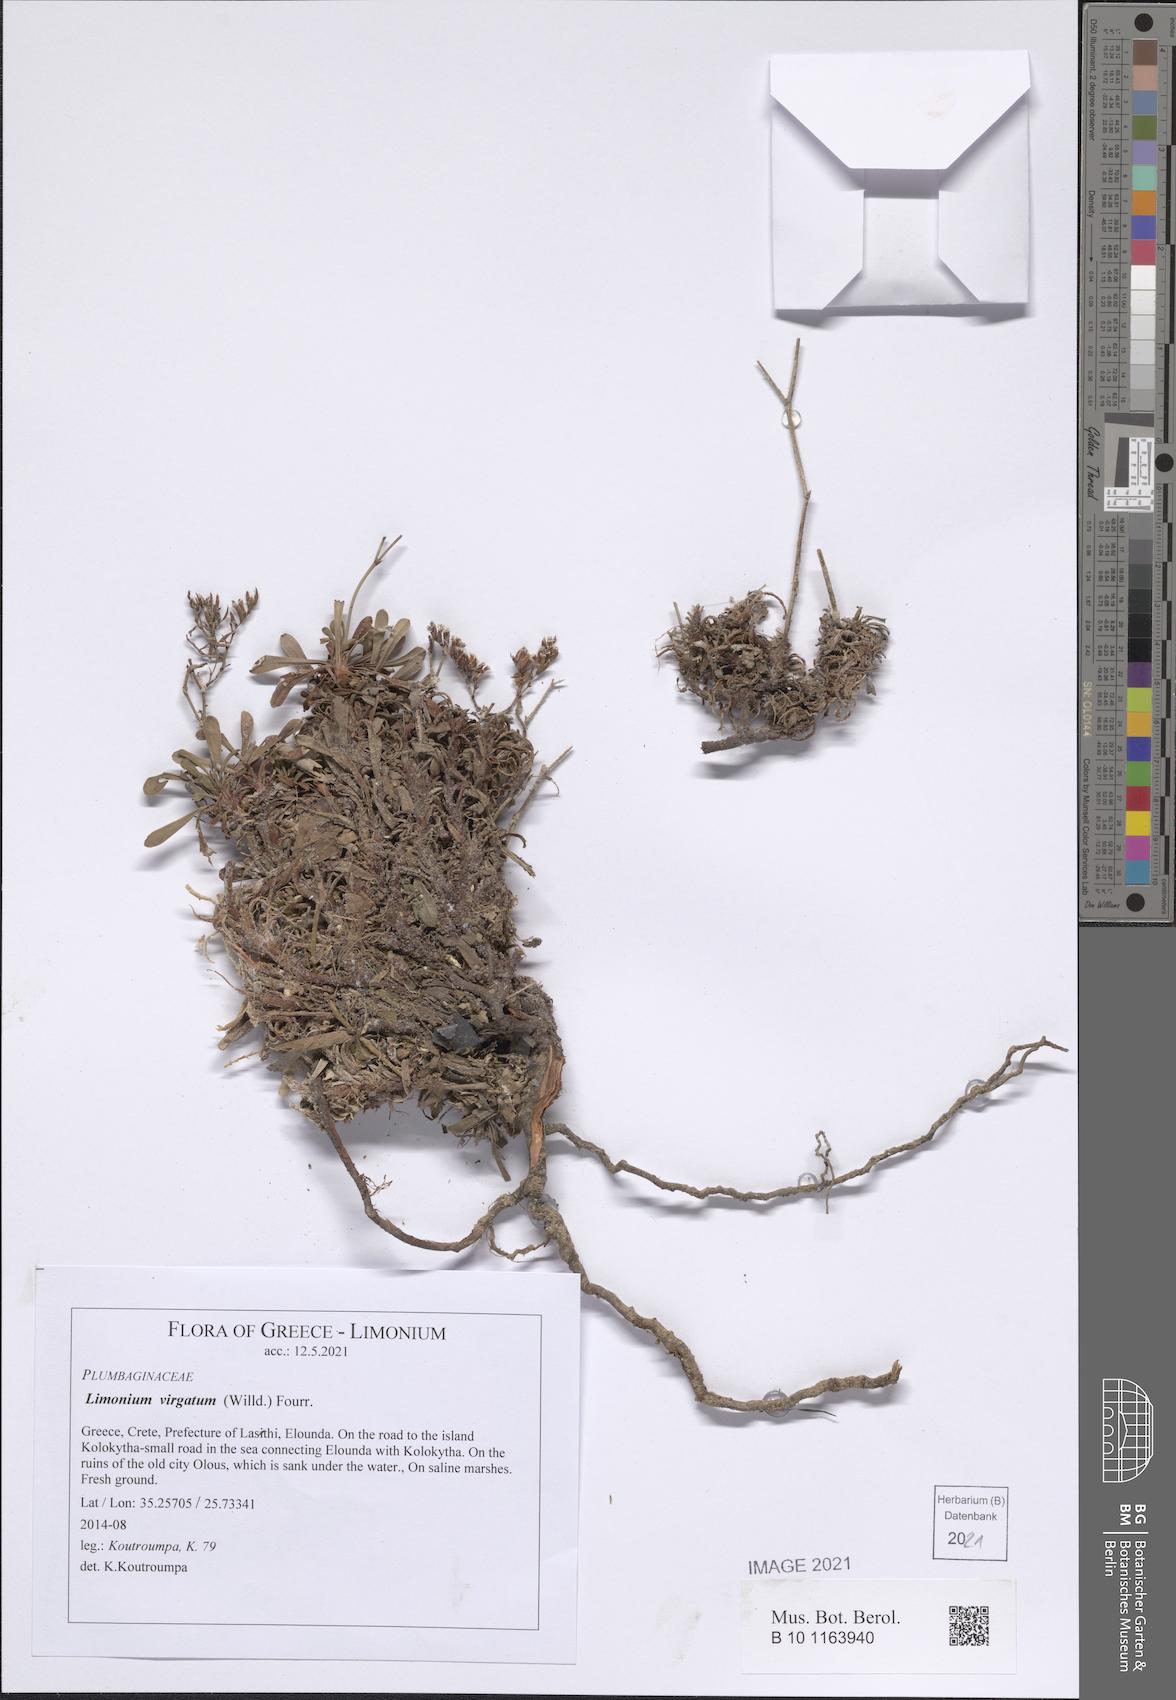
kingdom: Plantae
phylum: Tracheophyta
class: Magnoliopsida
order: Caryophyllales
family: Plumbaginaceae
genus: Limonium
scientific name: Limonium virgatum
